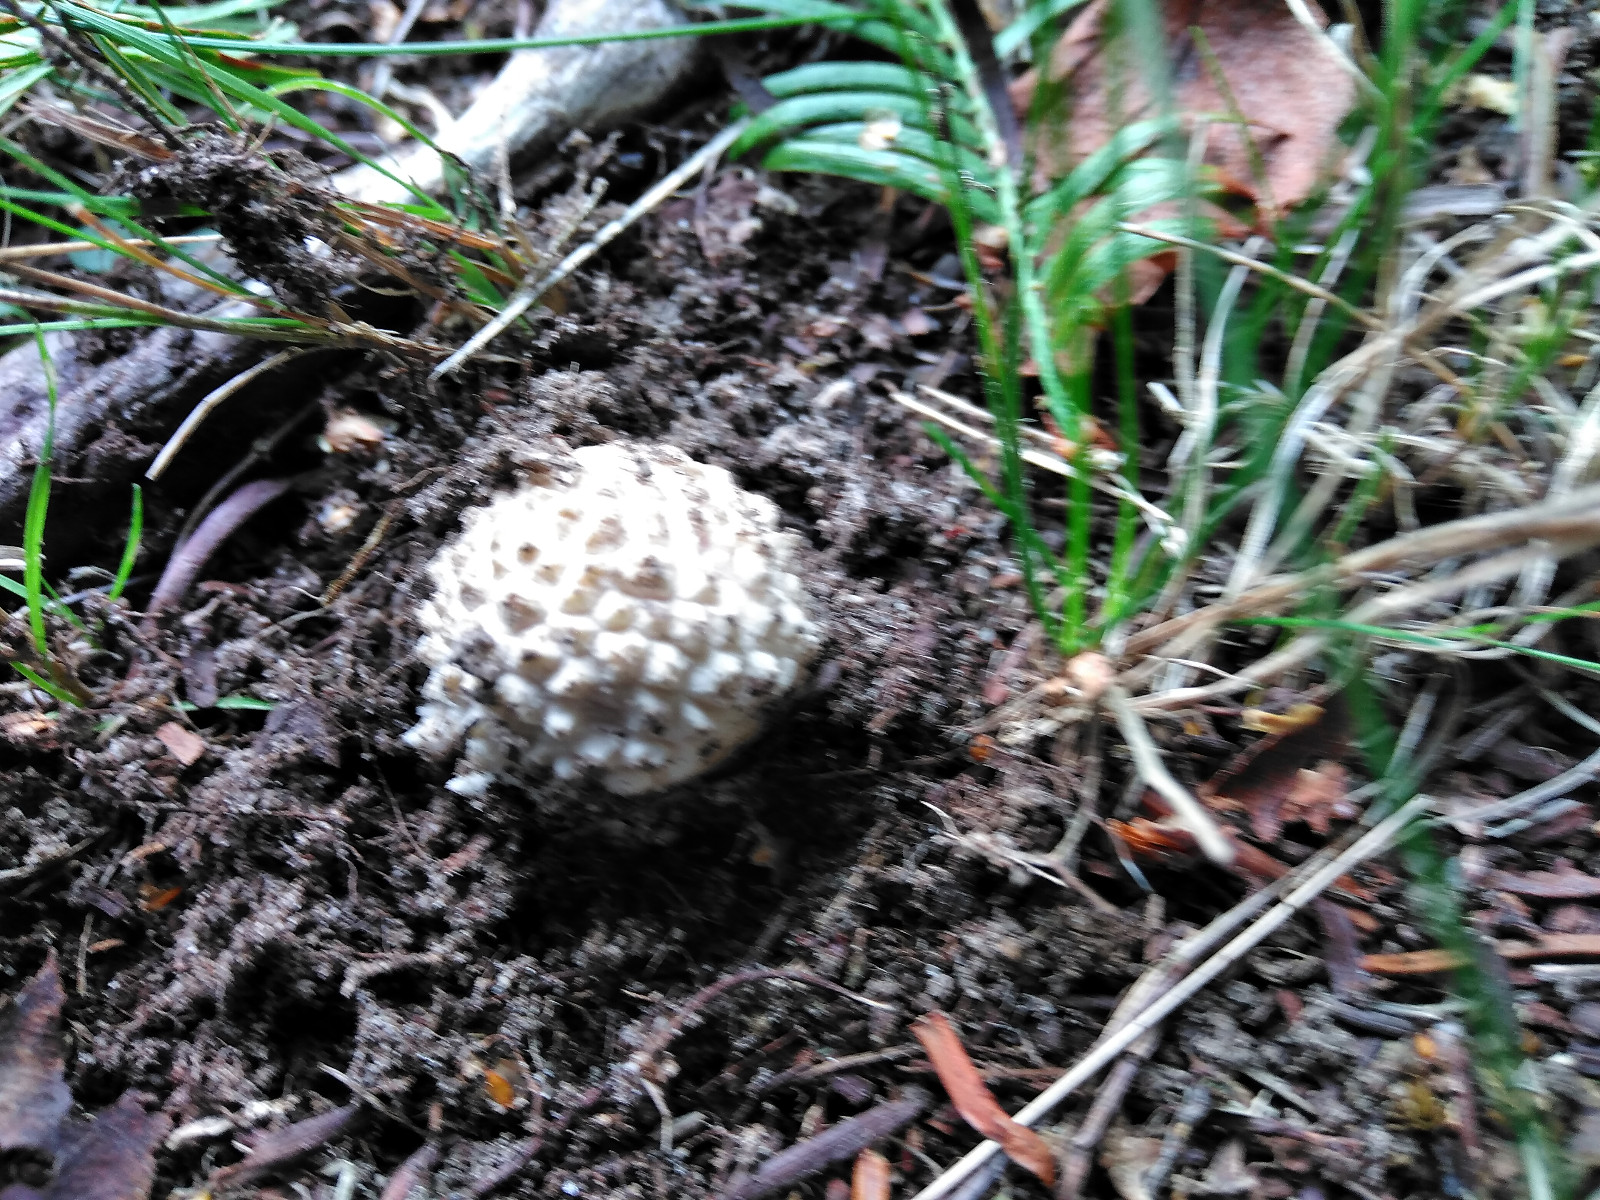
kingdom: Fungi
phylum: Basidiomycota
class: Agaricomycetes
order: Agaricales
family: Amanitaceae
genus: Amanita
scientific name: Amanita muscaria
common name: rød fluesvamp
